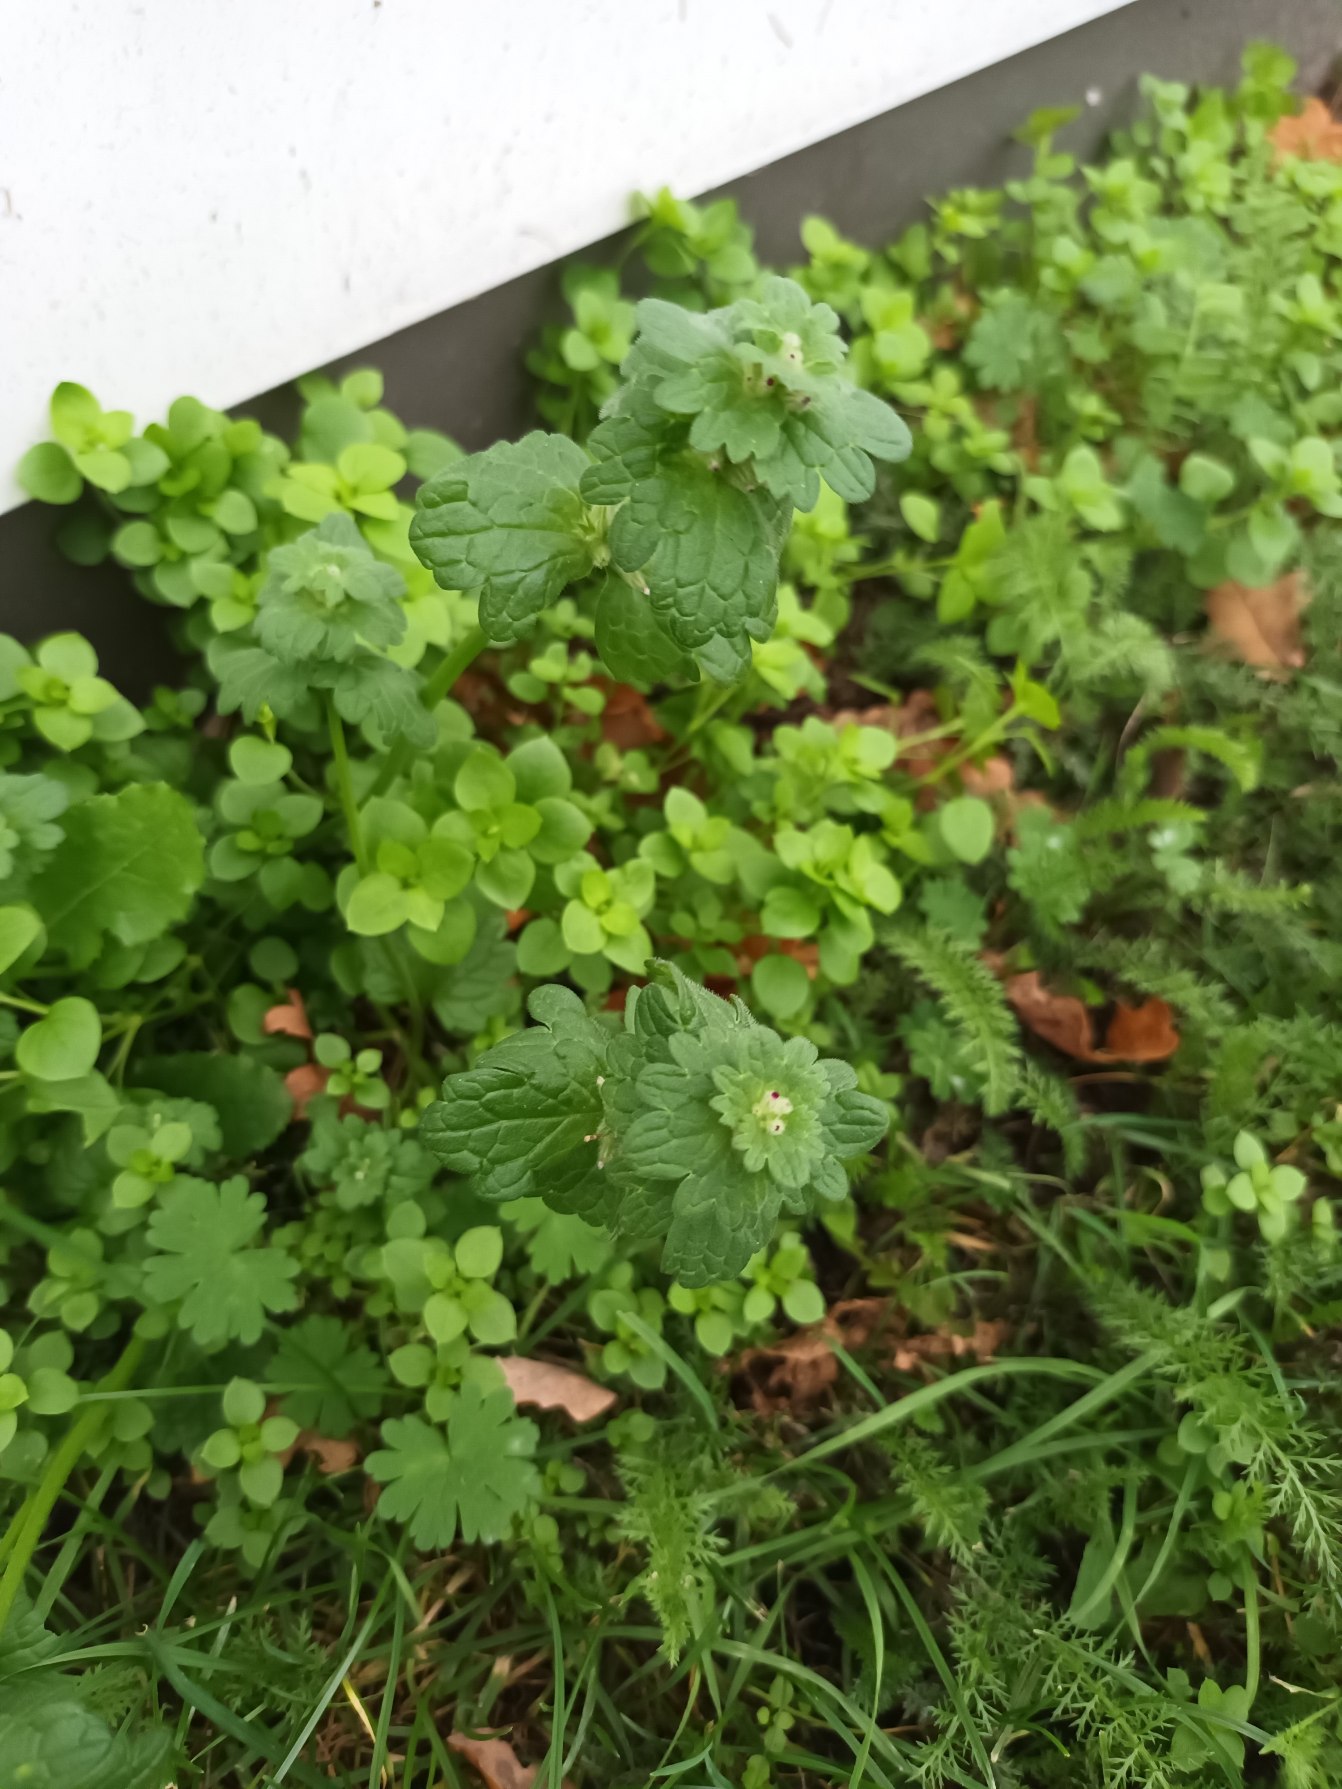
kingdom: Plantae
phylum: Tracheophyta
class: Magnoliopsida
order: Lamiales
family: Lamiaceae
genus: Lamium
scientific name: Lamium amplexicaule
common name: Liden tvetand
